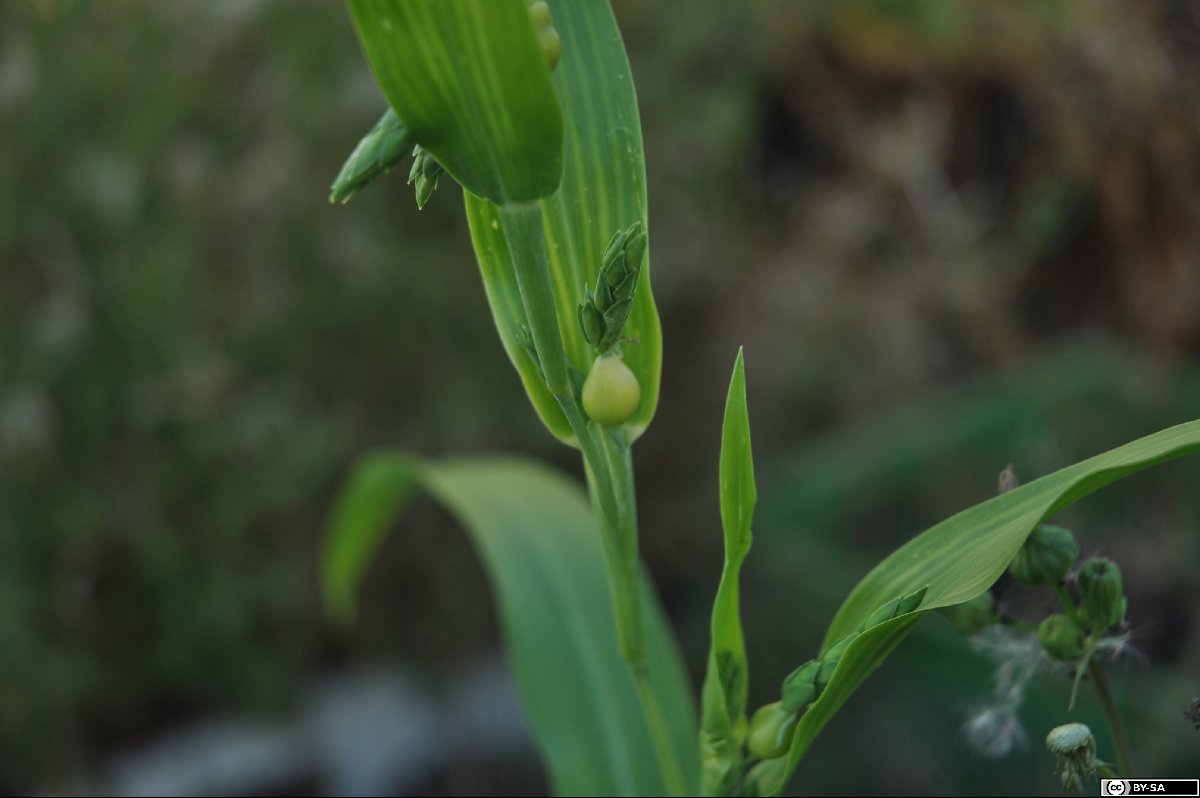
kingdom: Plantae
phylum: Tracheophyta
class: Liliopsida
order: Poales
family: Poaceae
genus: Coix
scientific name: Coix lacryma-jobi
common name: Job's tears
